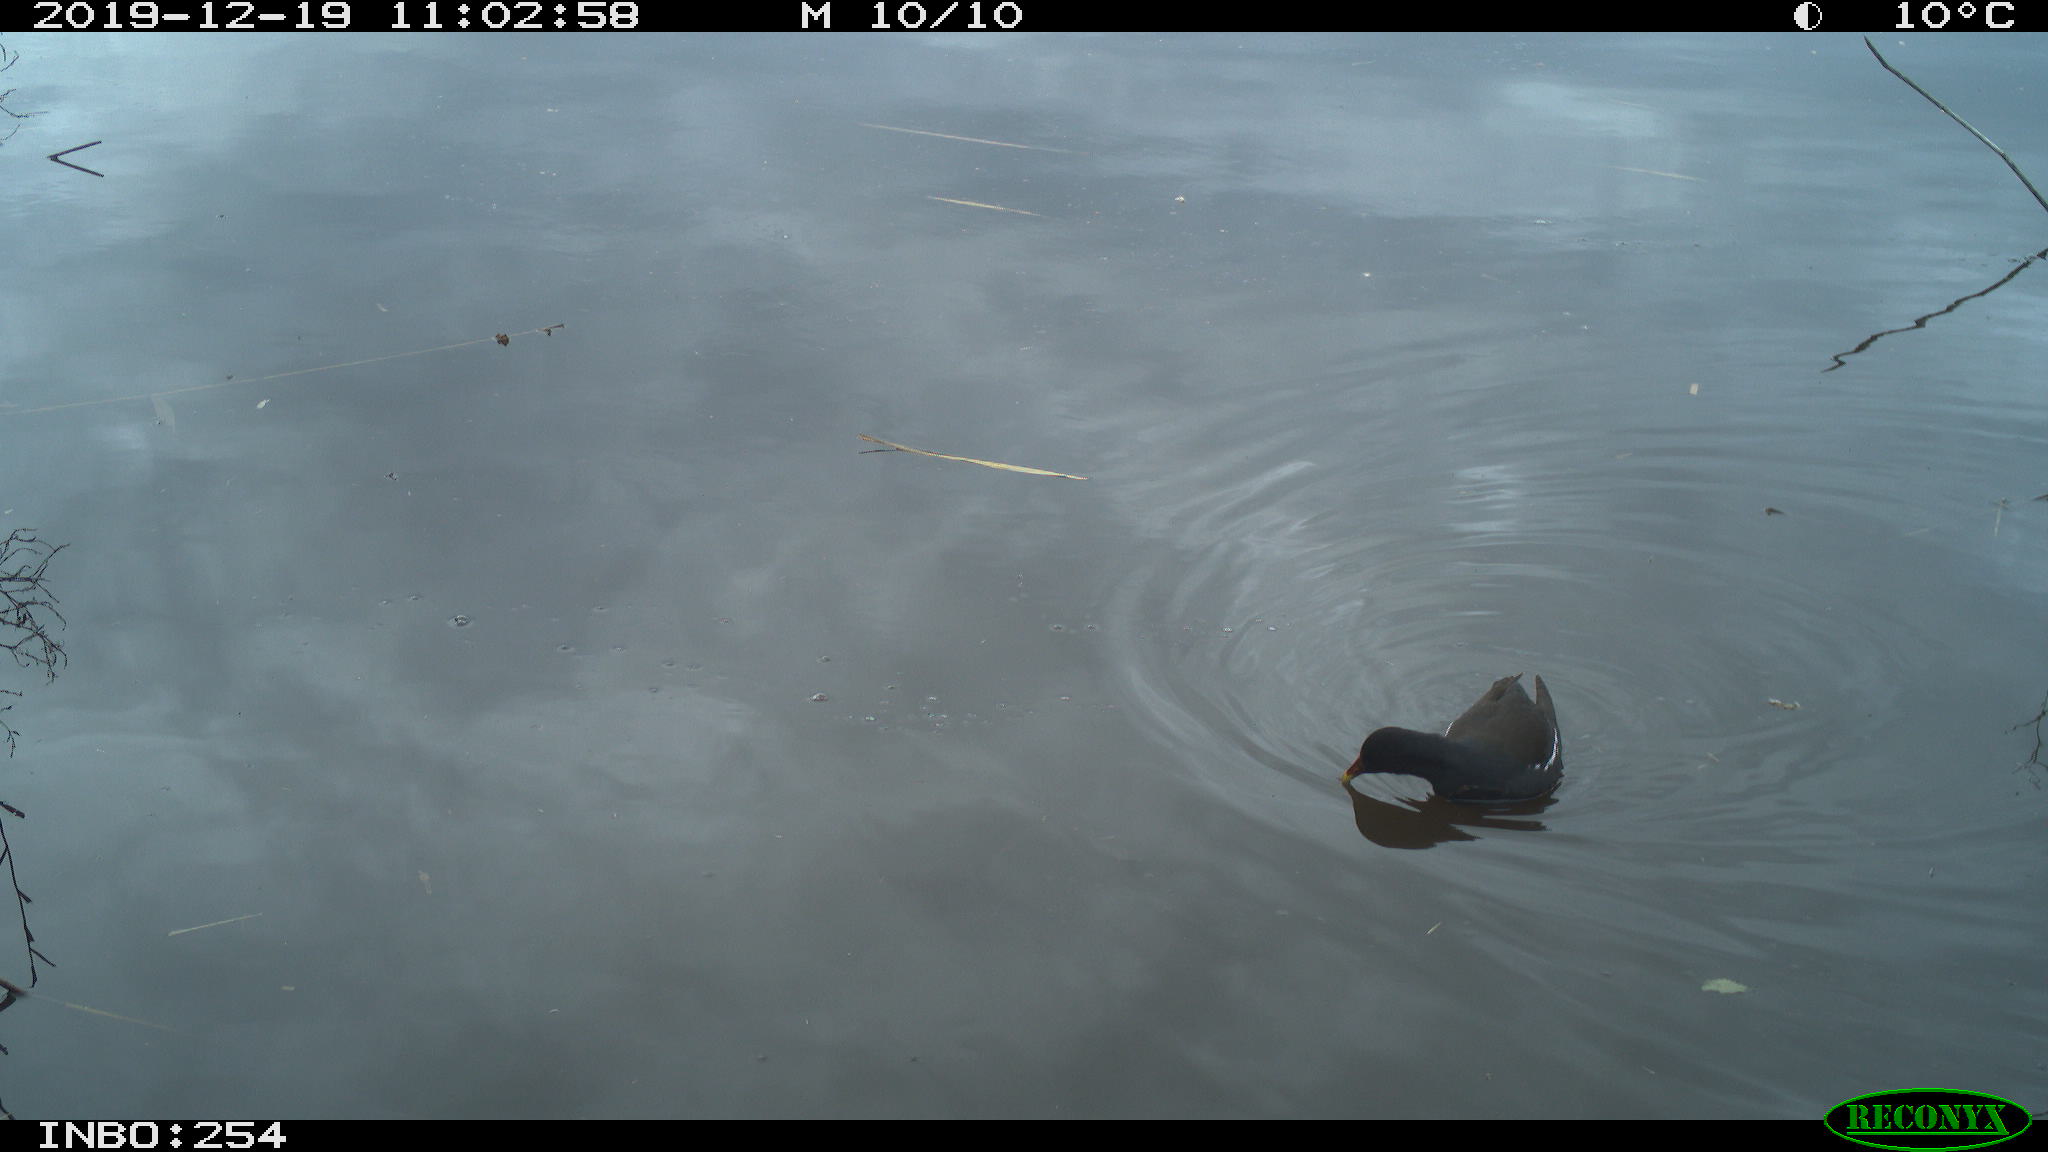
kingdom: Animalia
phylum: Chordata
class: Aves
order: Gruiformes
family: Rallidae
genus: Gallinula
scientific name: Gallinula chloropus
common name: Common moorhen
